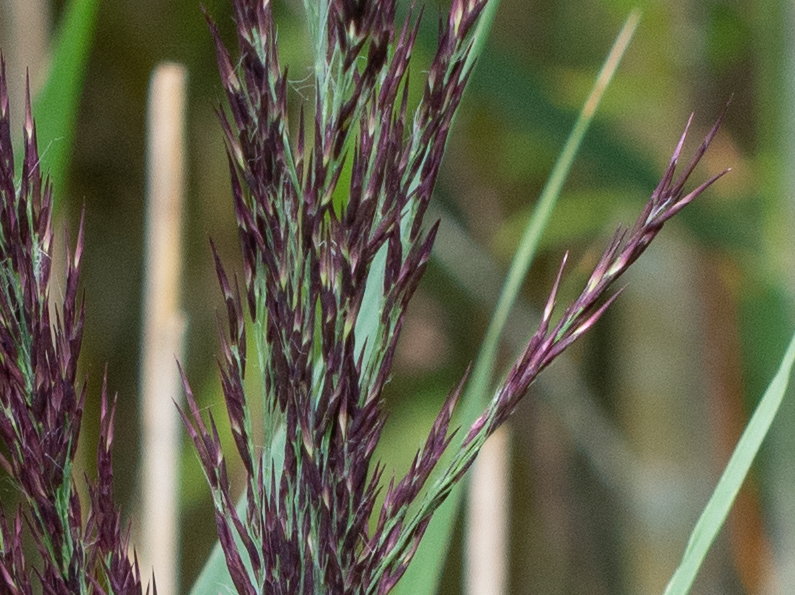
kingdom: Plantae
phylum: Tracheophyta
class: Liliopsida
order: Poales
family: Poaceae
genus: Phragmites
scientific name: Phragmites australis
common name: Tagrør
